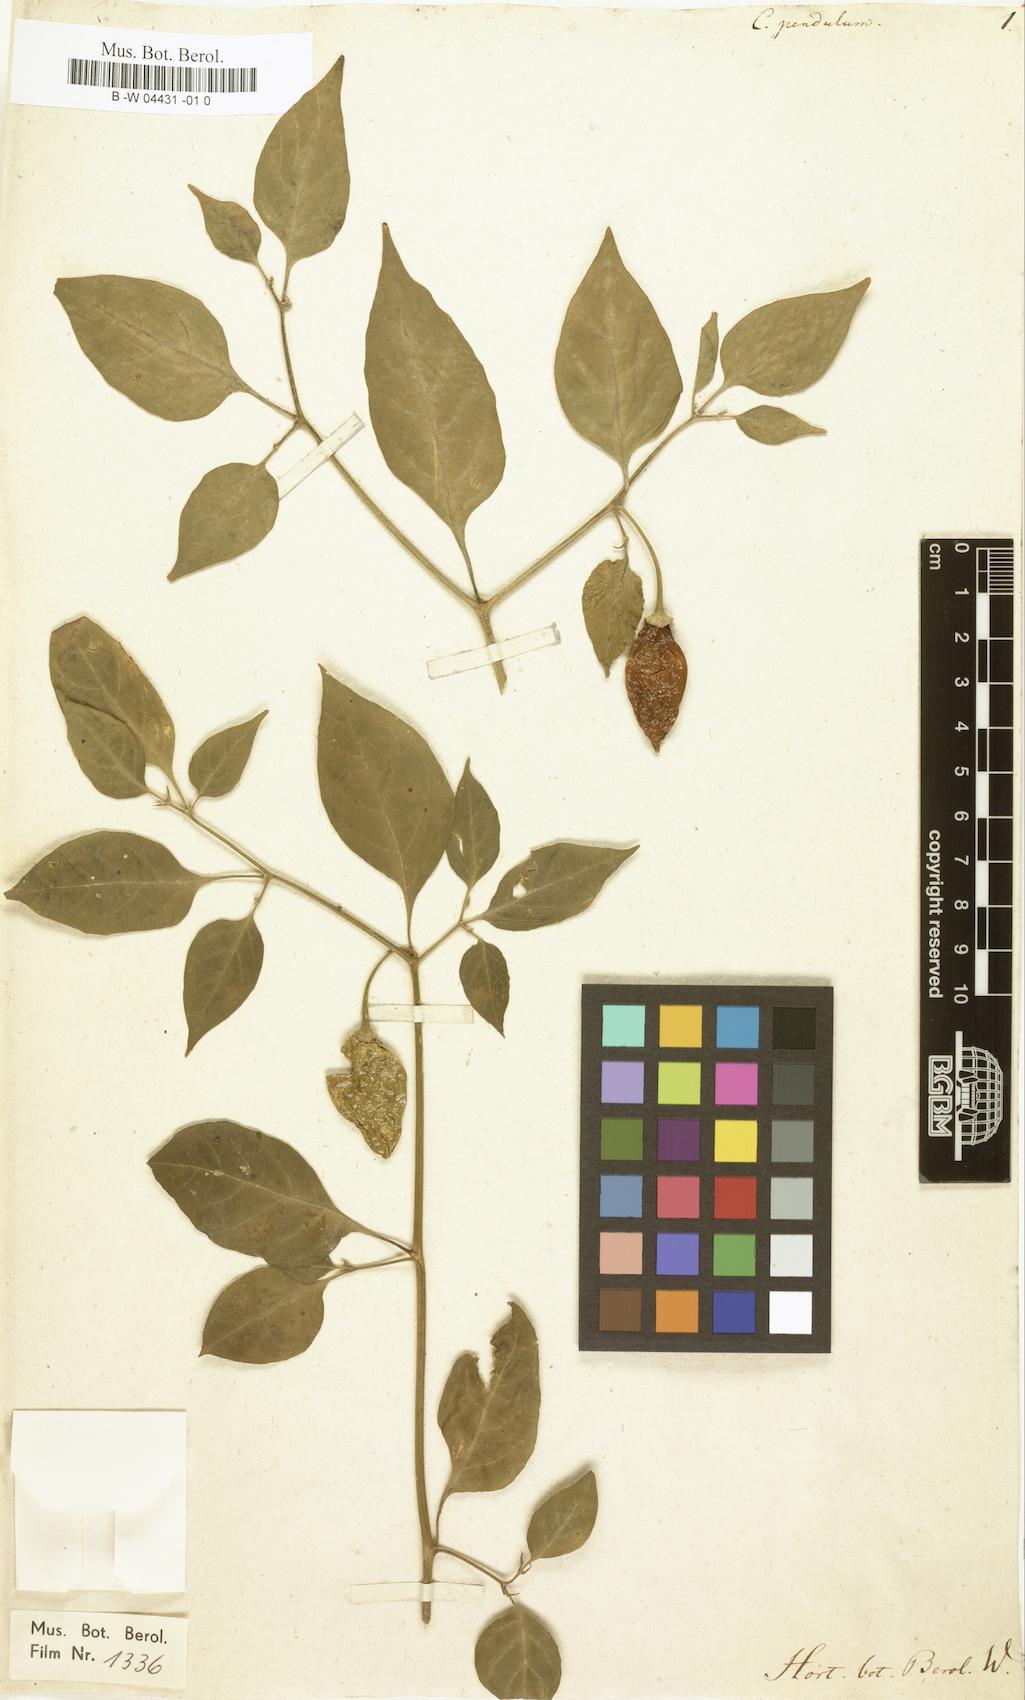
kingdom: Plantae
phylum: Tracheophyta
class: Magnoliopsida
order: Solanales
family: Solanaceae
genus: Capsicum
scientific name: Capsicum baccatum
